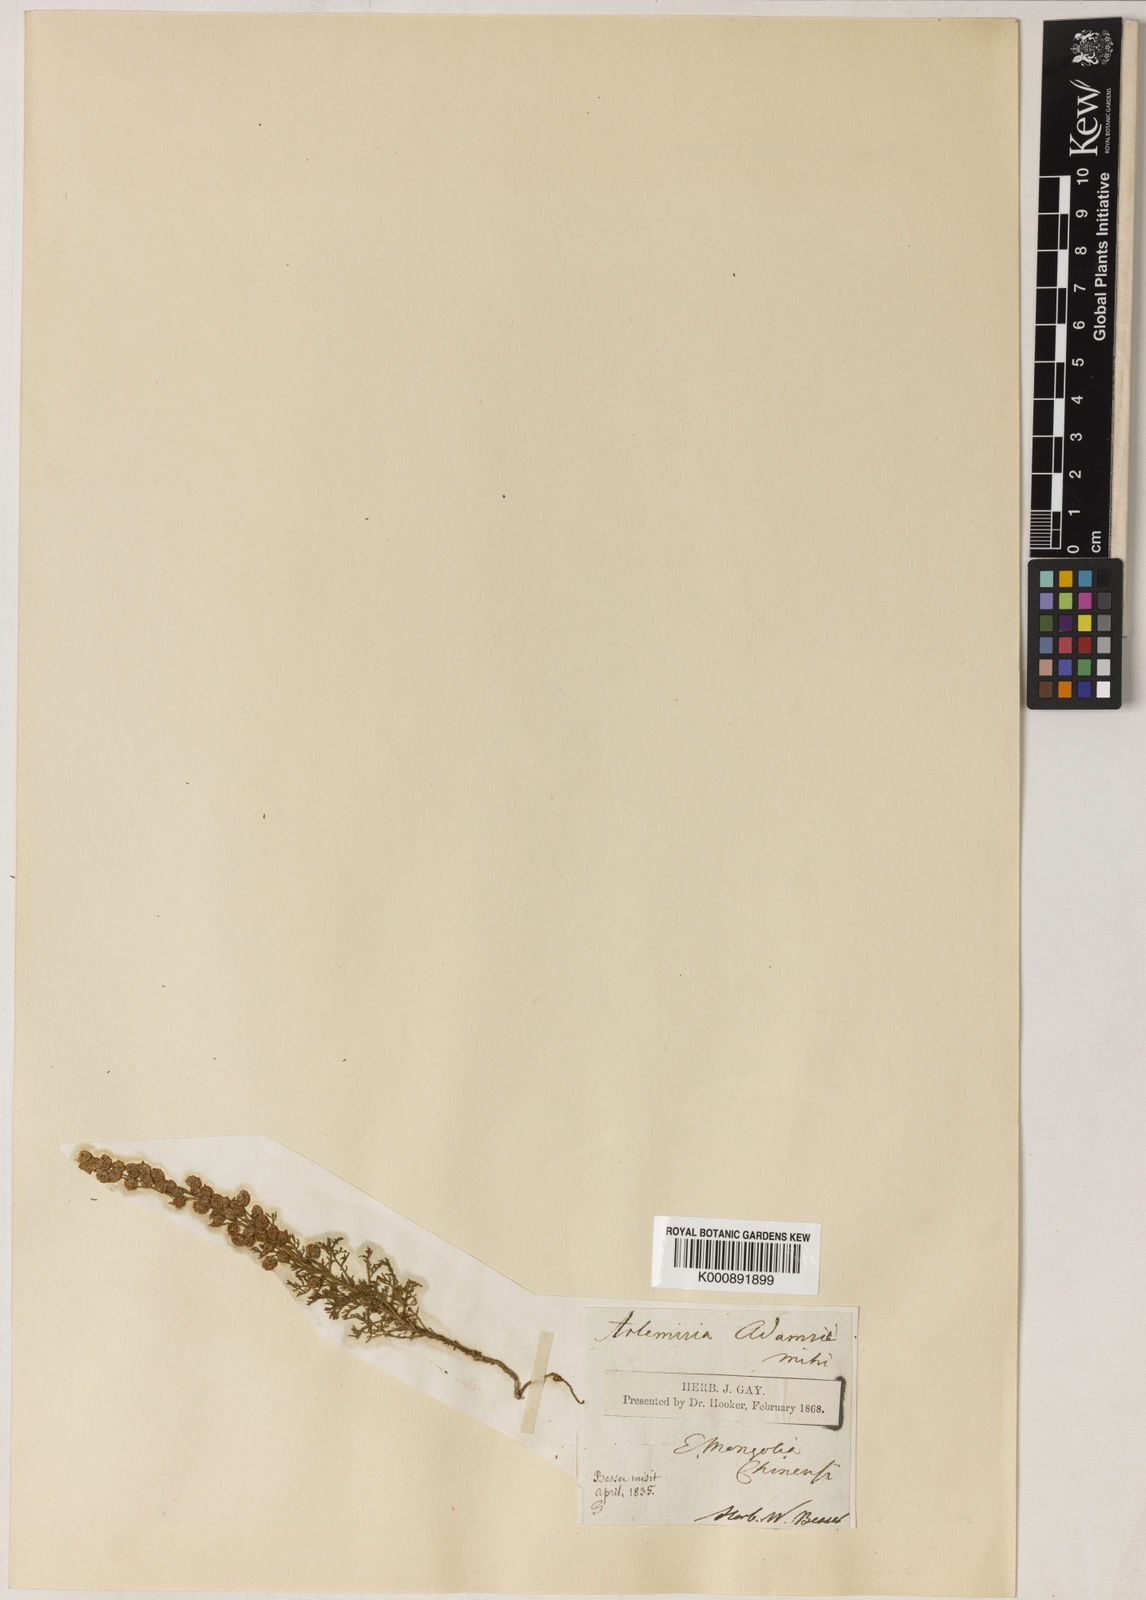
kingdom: Plantae
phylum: Tracheophyta
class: Magnoliopsida
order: Asterales
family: Asteraceae
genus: Artemisia
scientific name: Artemisia adamsii
